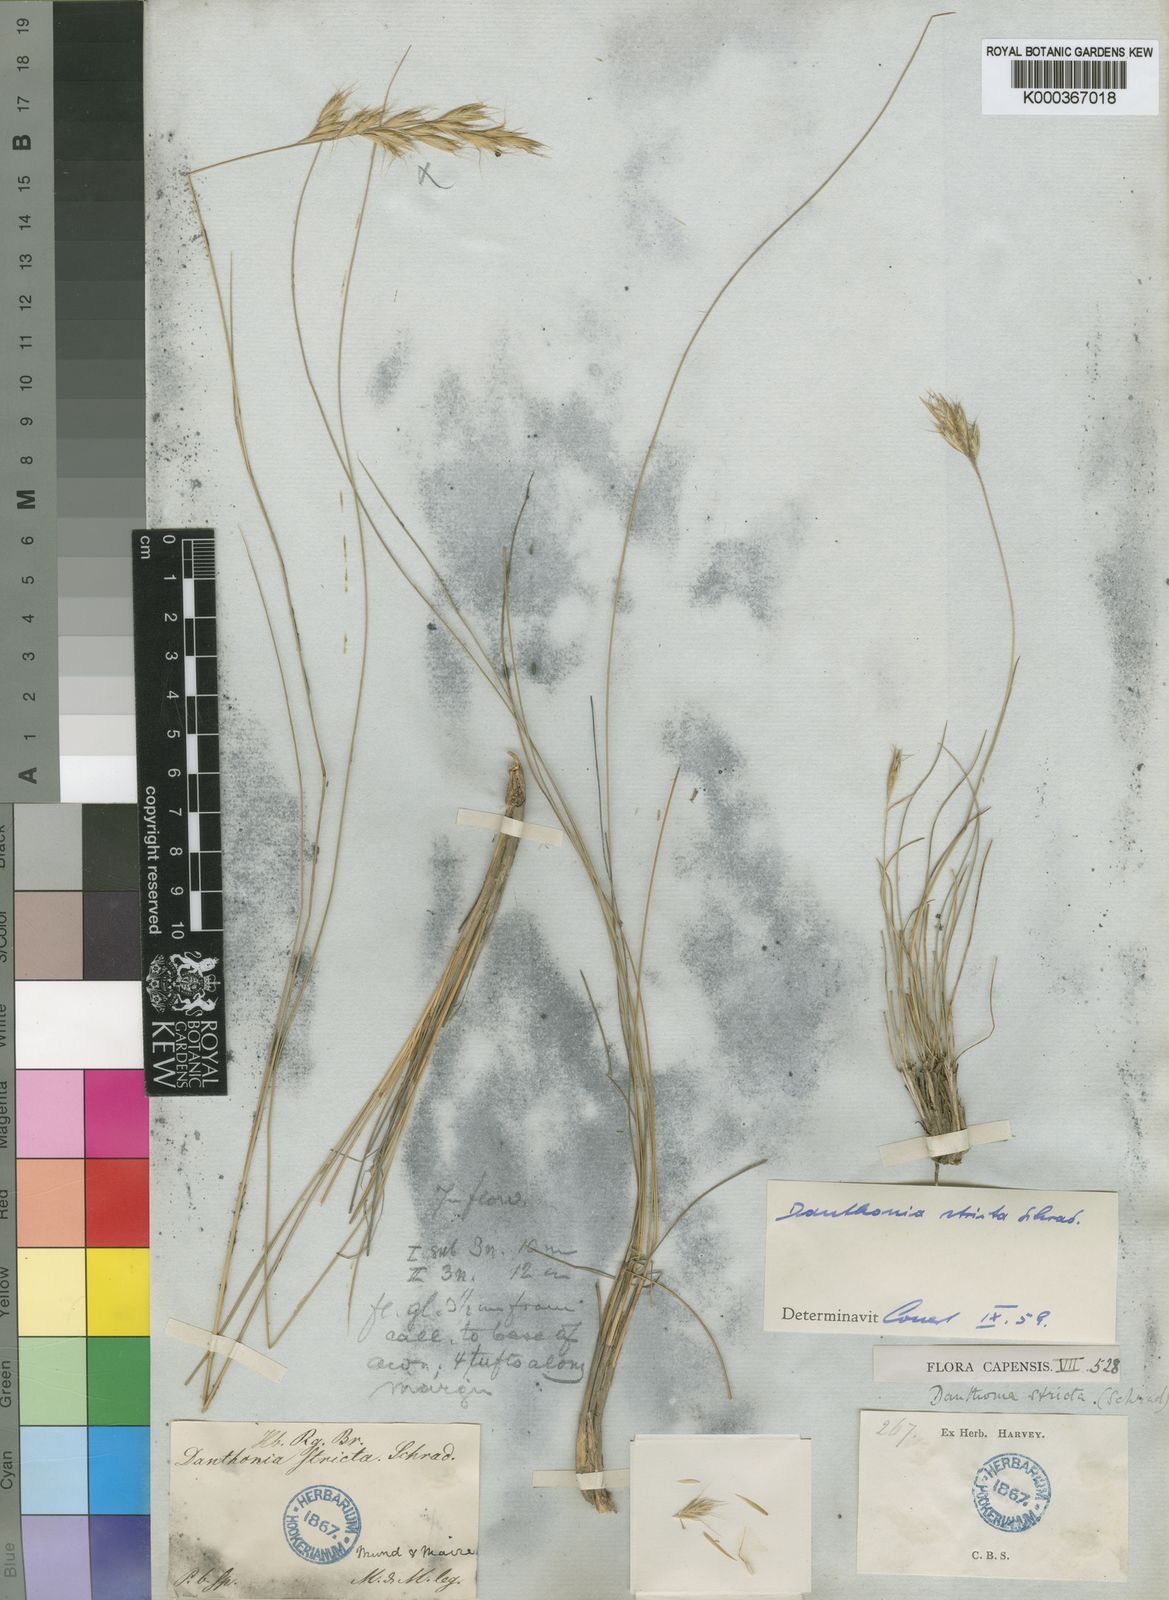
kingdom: Plantae
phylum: Tracheophyta
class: Liliopsida
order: Poales
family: Poaceae
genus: Rytidosperma
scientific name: Rytidosperma
